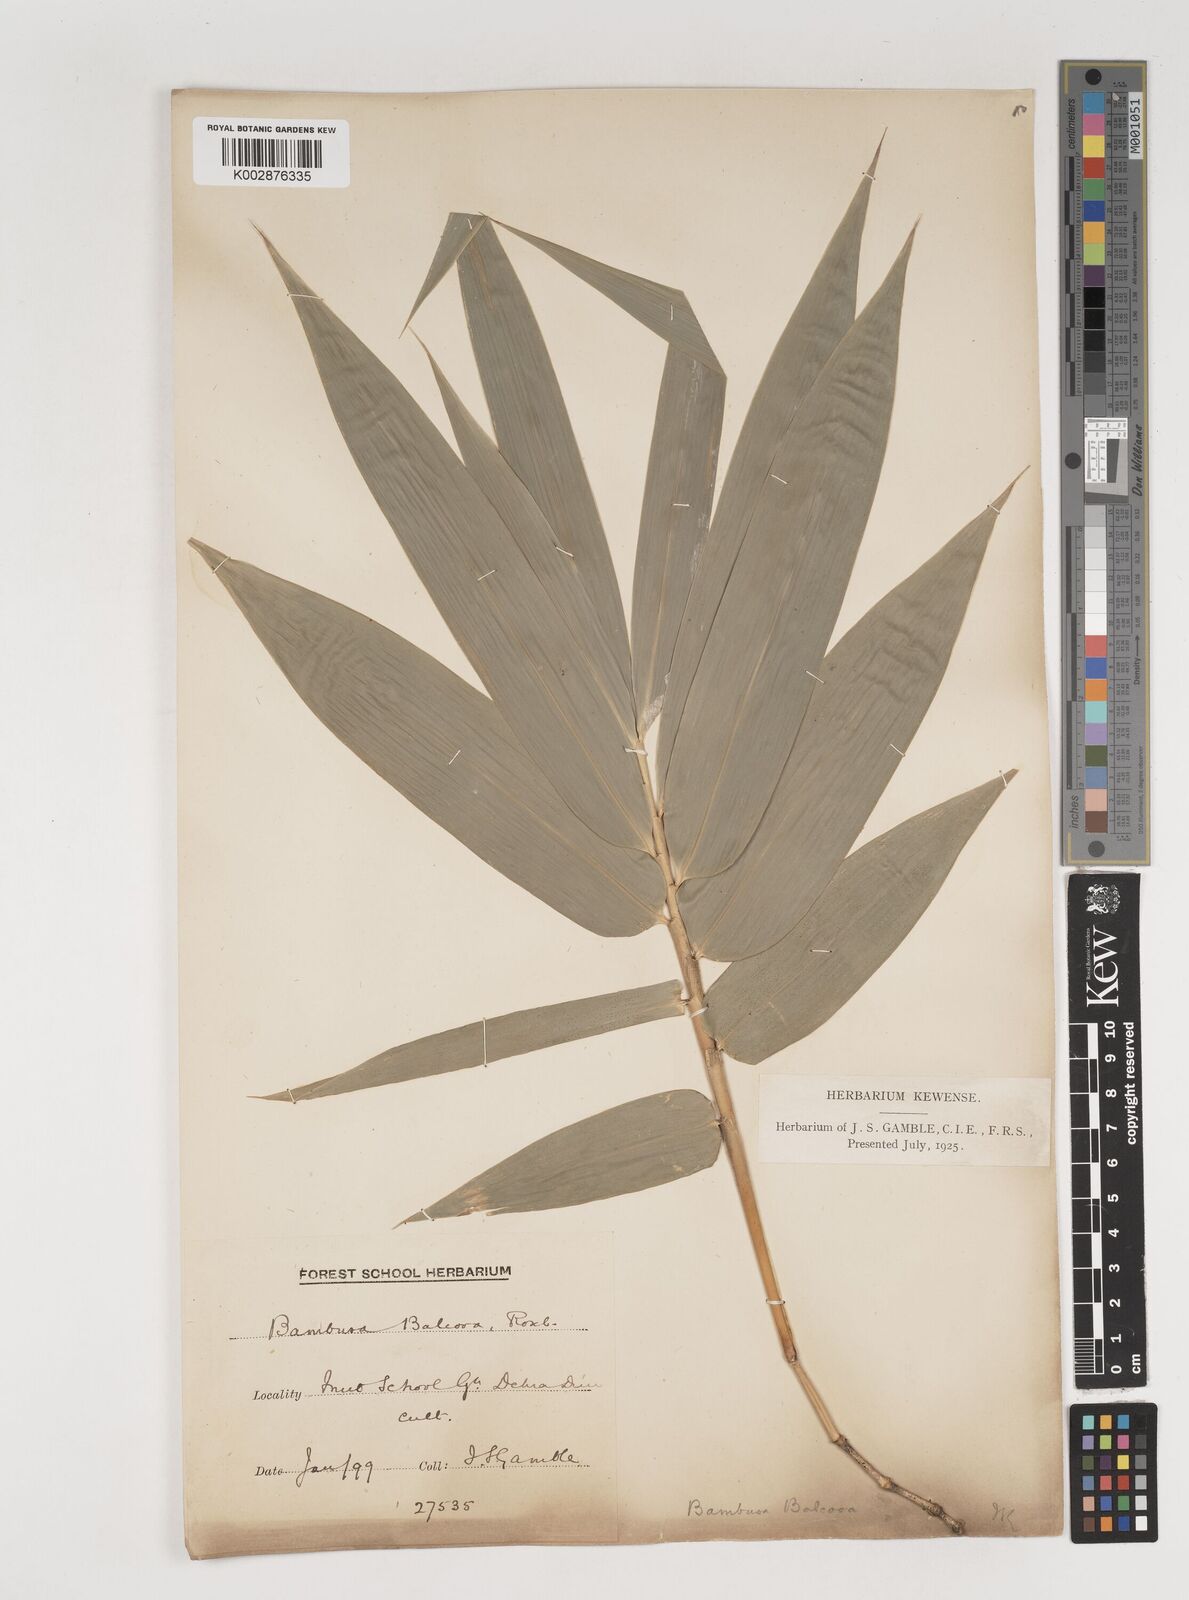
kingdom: Plantae
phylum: Tracheophyta
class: Liliopsida
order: Poales
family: Poaceae
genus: Bambusa
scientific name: Bambusa balcooa
